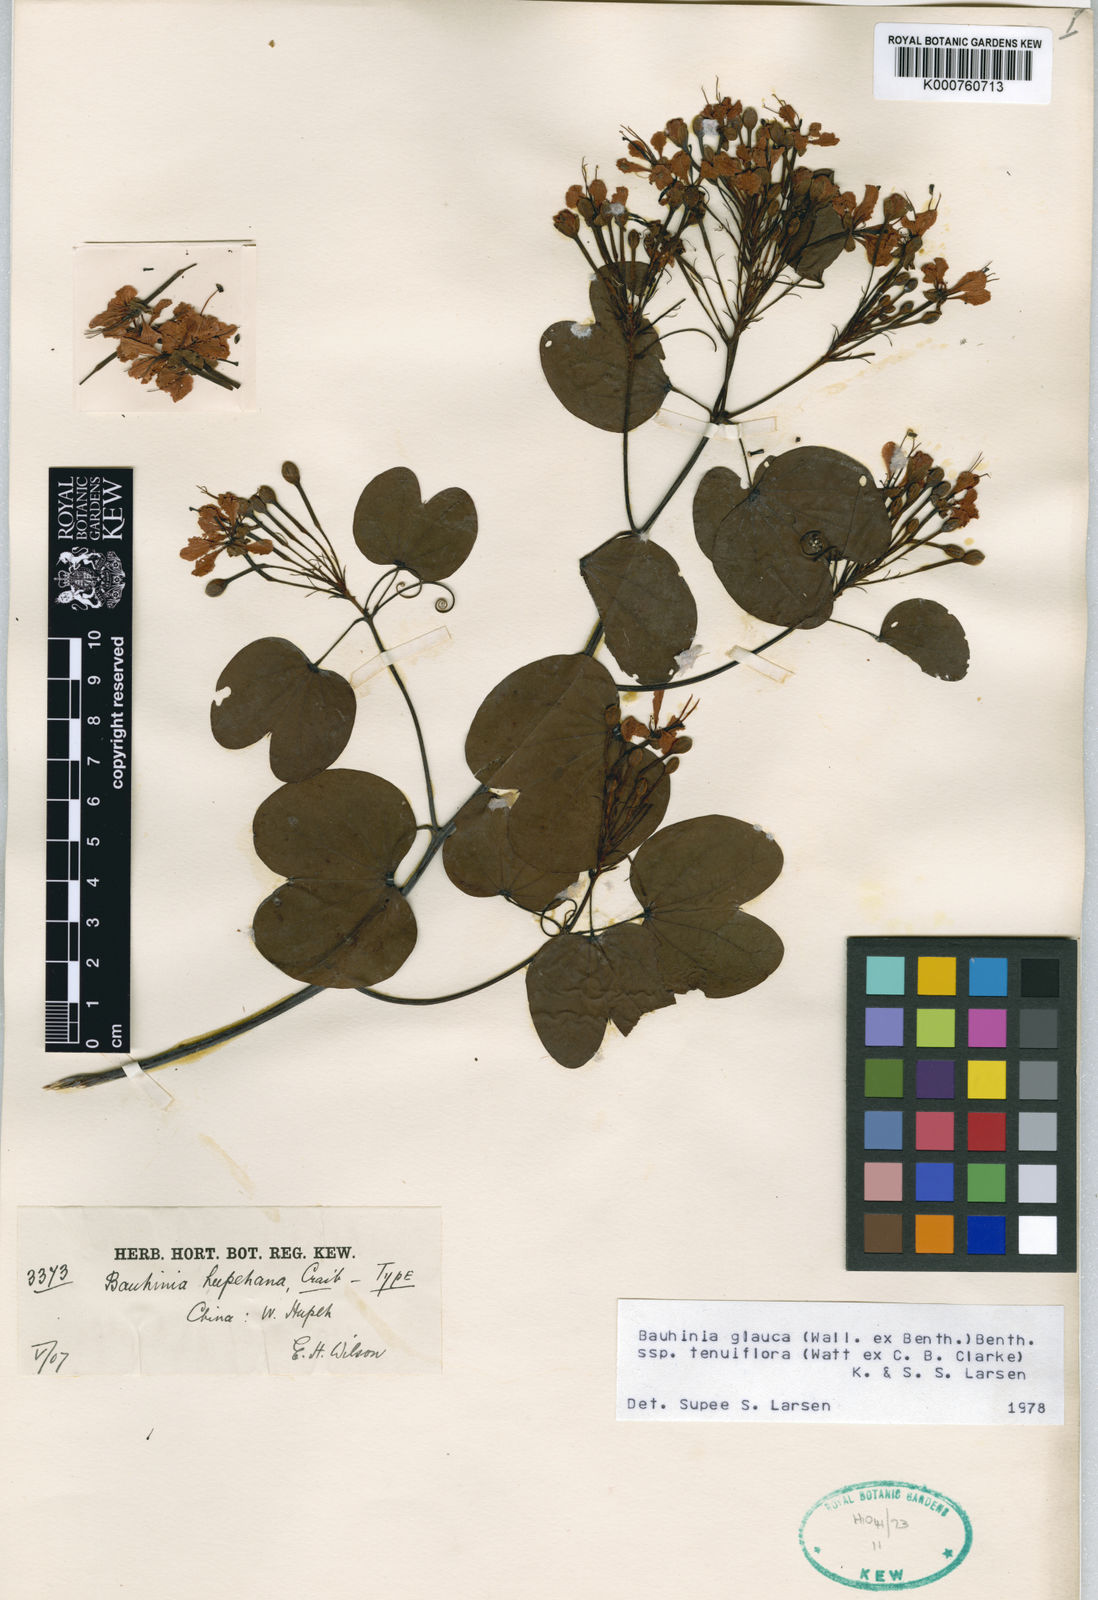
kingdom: Plantae
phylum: Tracheophyta
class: Magnoliopsida
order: Fabales
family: Fabaceae
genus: Cheniella
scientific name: Cheniella tenuiflora
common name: Bauhinia
